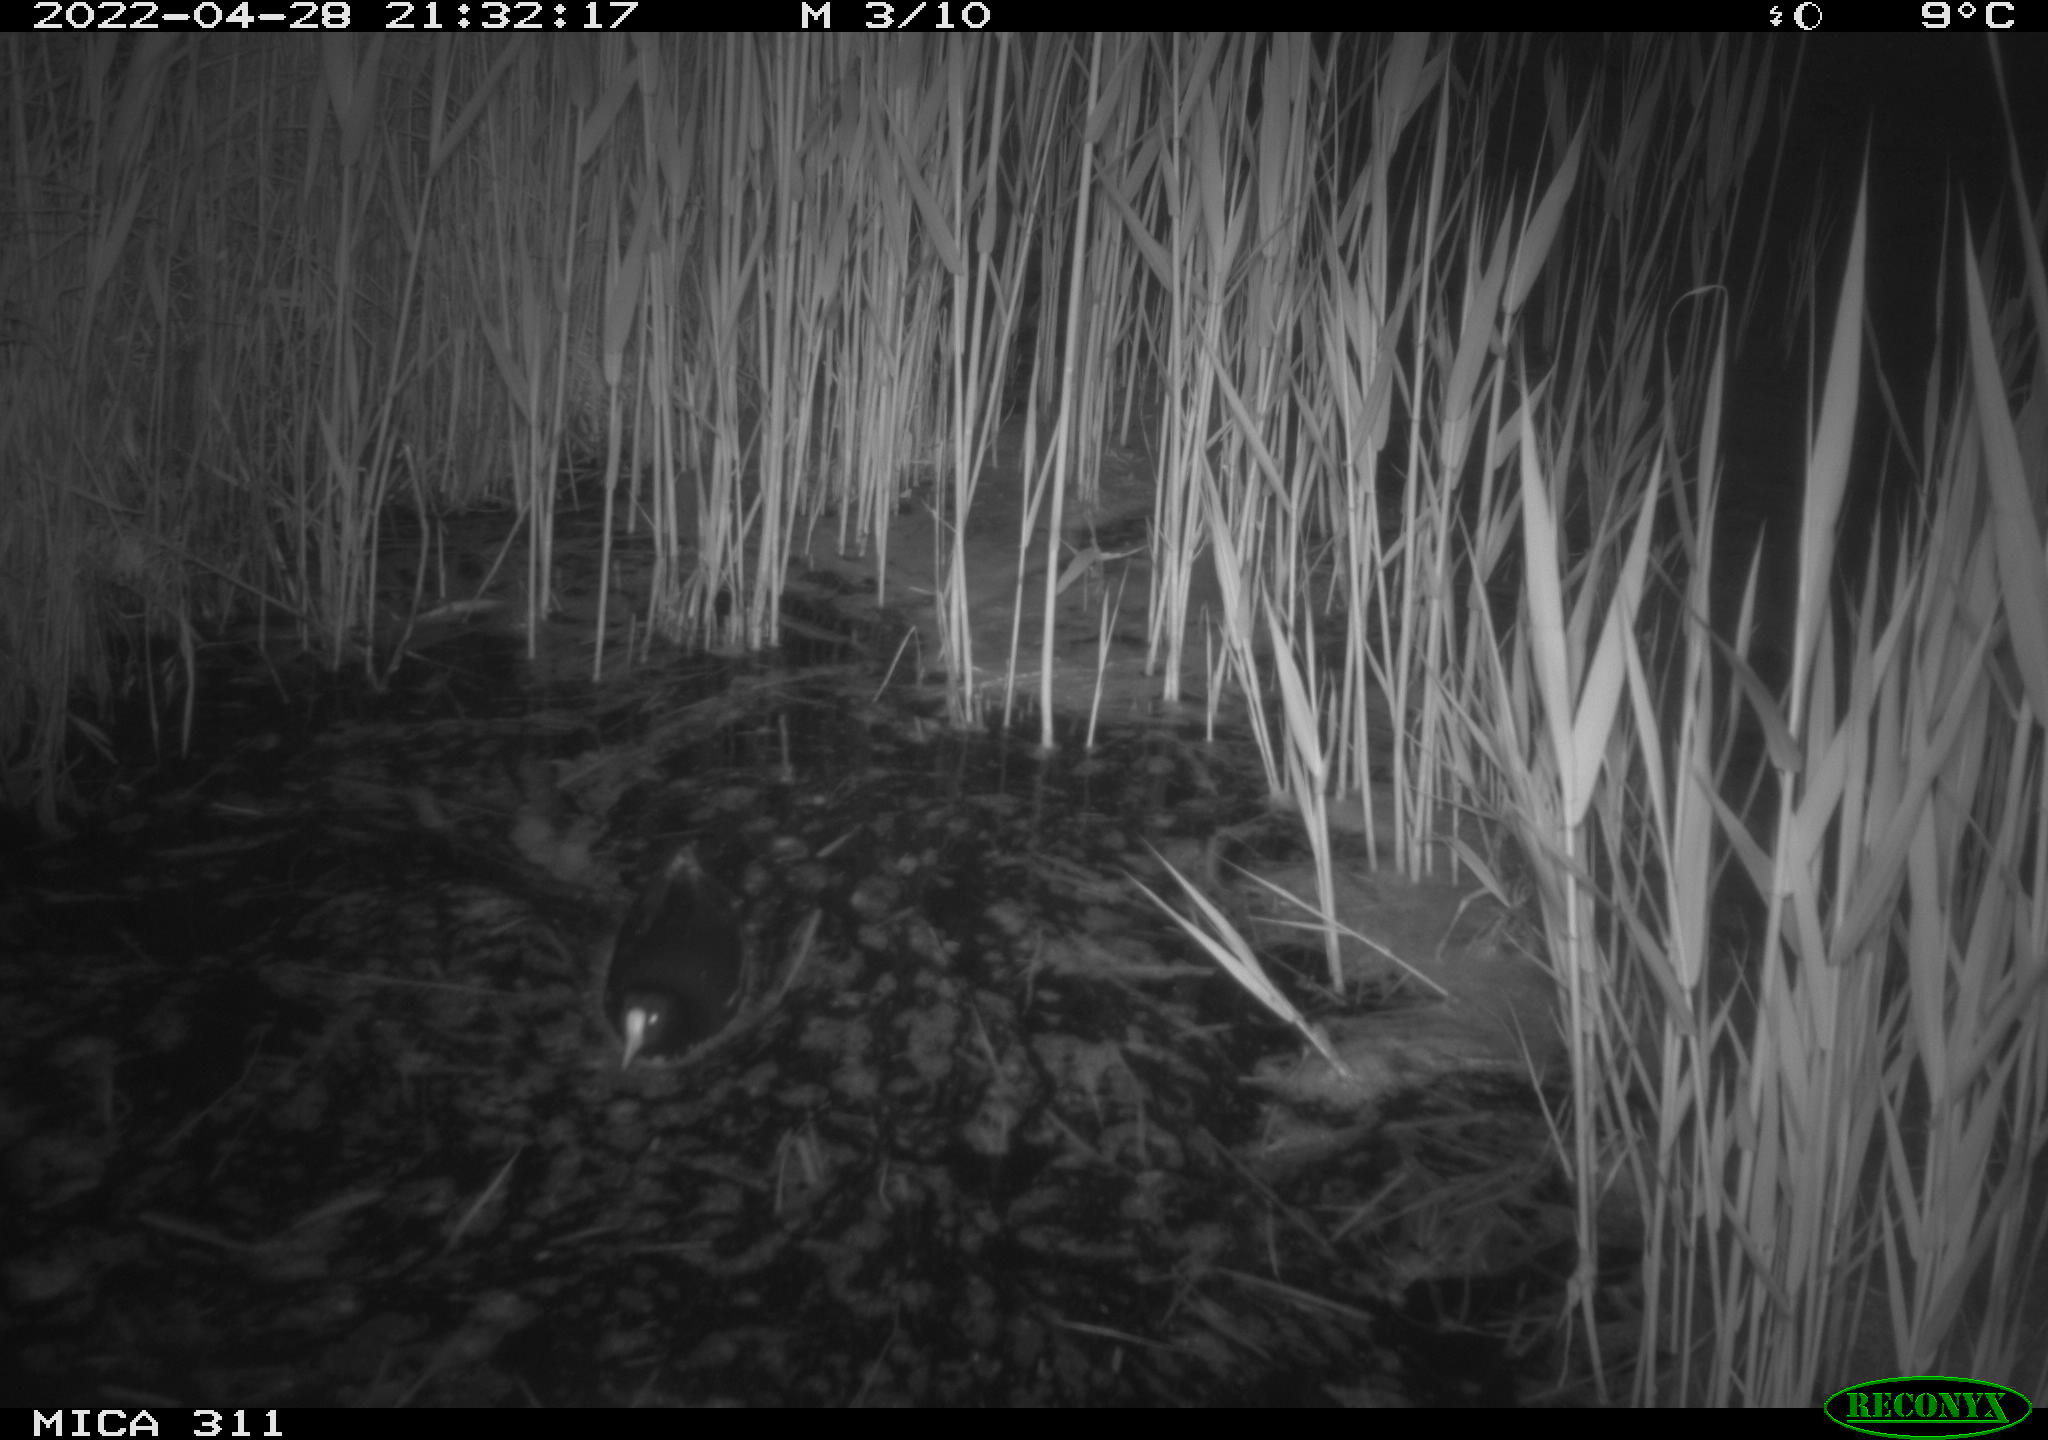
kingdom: Animalia
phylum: Chordata
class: Aves
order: Gruiformes
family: Rallidae
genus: Gallinula
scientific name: Gallinula chloropus
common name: Common moorhen
